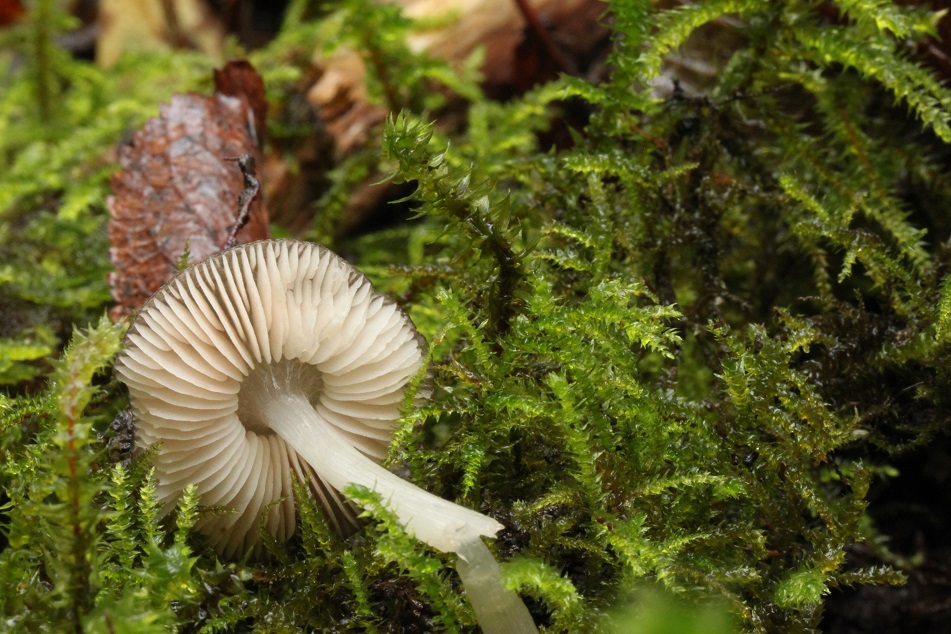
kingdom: Fungi
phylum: Basidiomycota
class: Agaricomycetes
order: Agaricales
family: Pluteaceae
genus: Pluteus
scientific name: Pluteus
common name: pudret skærmhat
